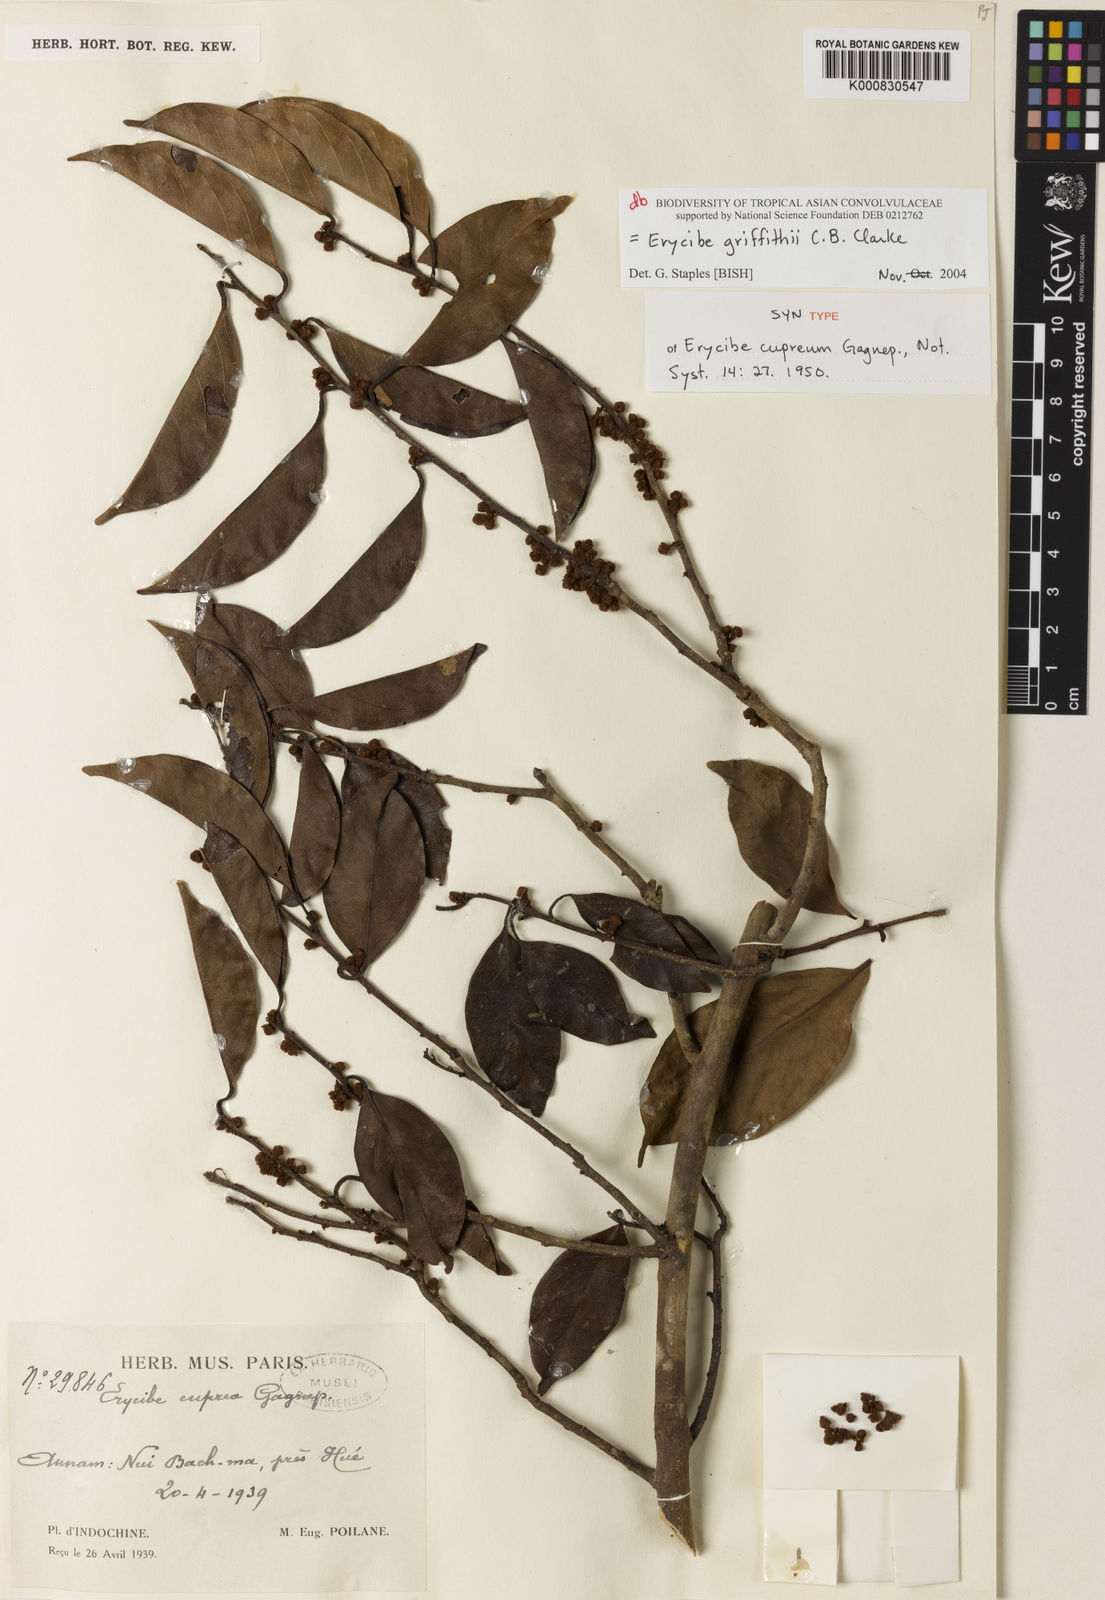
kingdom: Plantae
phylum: Tracheophyta
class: Magnoliopsida
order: Solanales
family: Convolvulaceae
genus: Erycibe
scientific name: Erycibe griffithii
